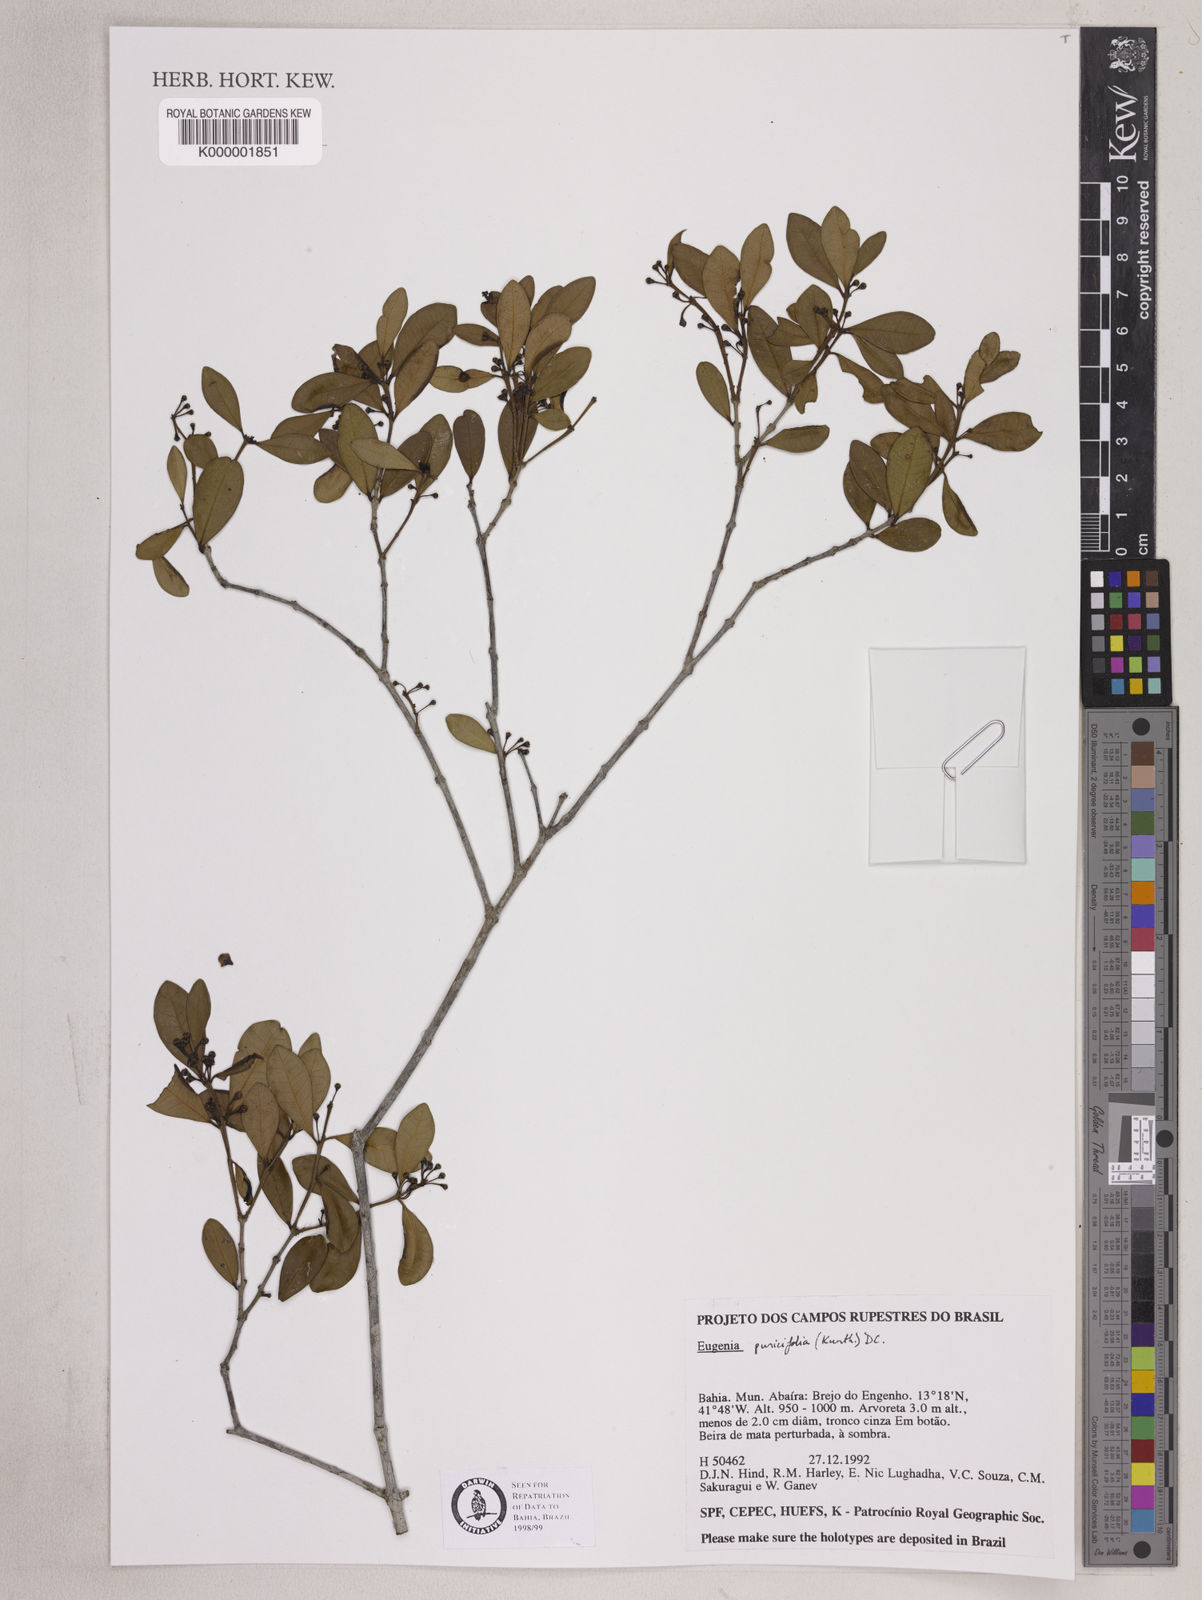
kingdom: Plantae
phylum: Tracheophyta
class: Magnoliopsida
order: Myrtales
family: Myrtaceae
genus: Eugenia
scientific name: Eugenia punicifolia
